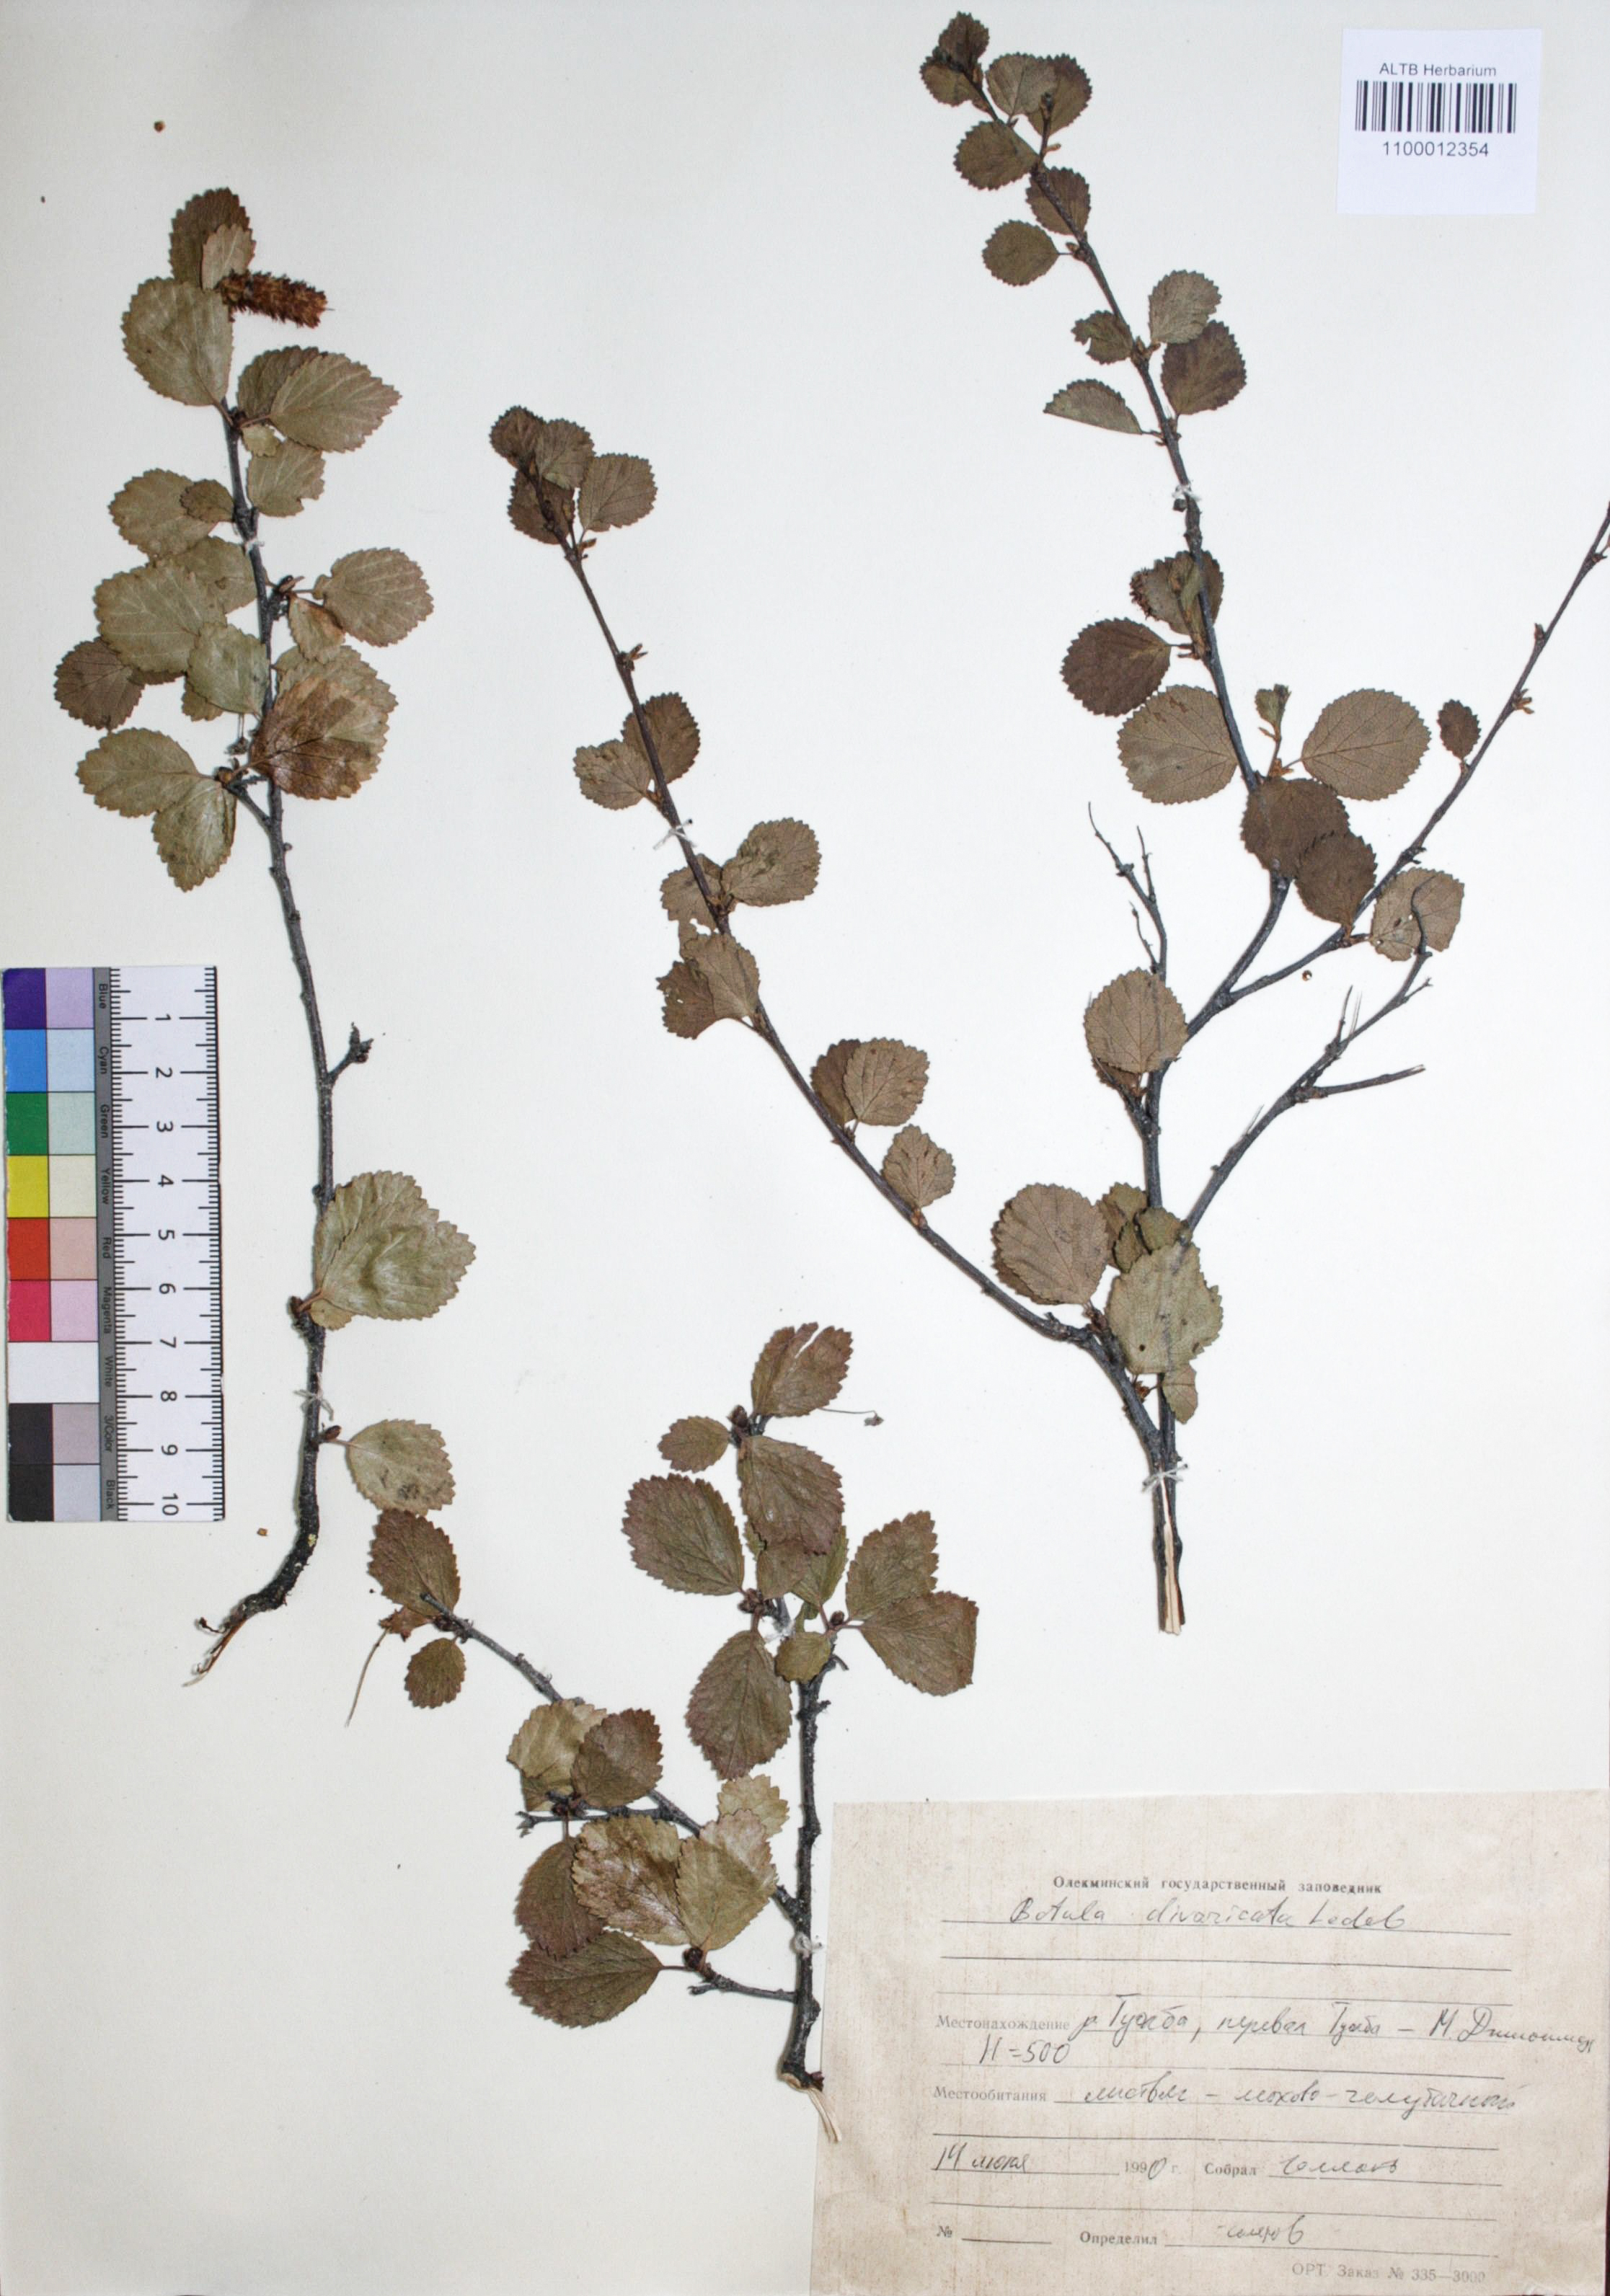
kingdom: Plantae
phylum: Tracheophyta
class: Magnoliopsida
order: Fagales
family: Betulaceae
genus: Betula
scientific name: Betula fruticosa
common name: Japanese bog birch
